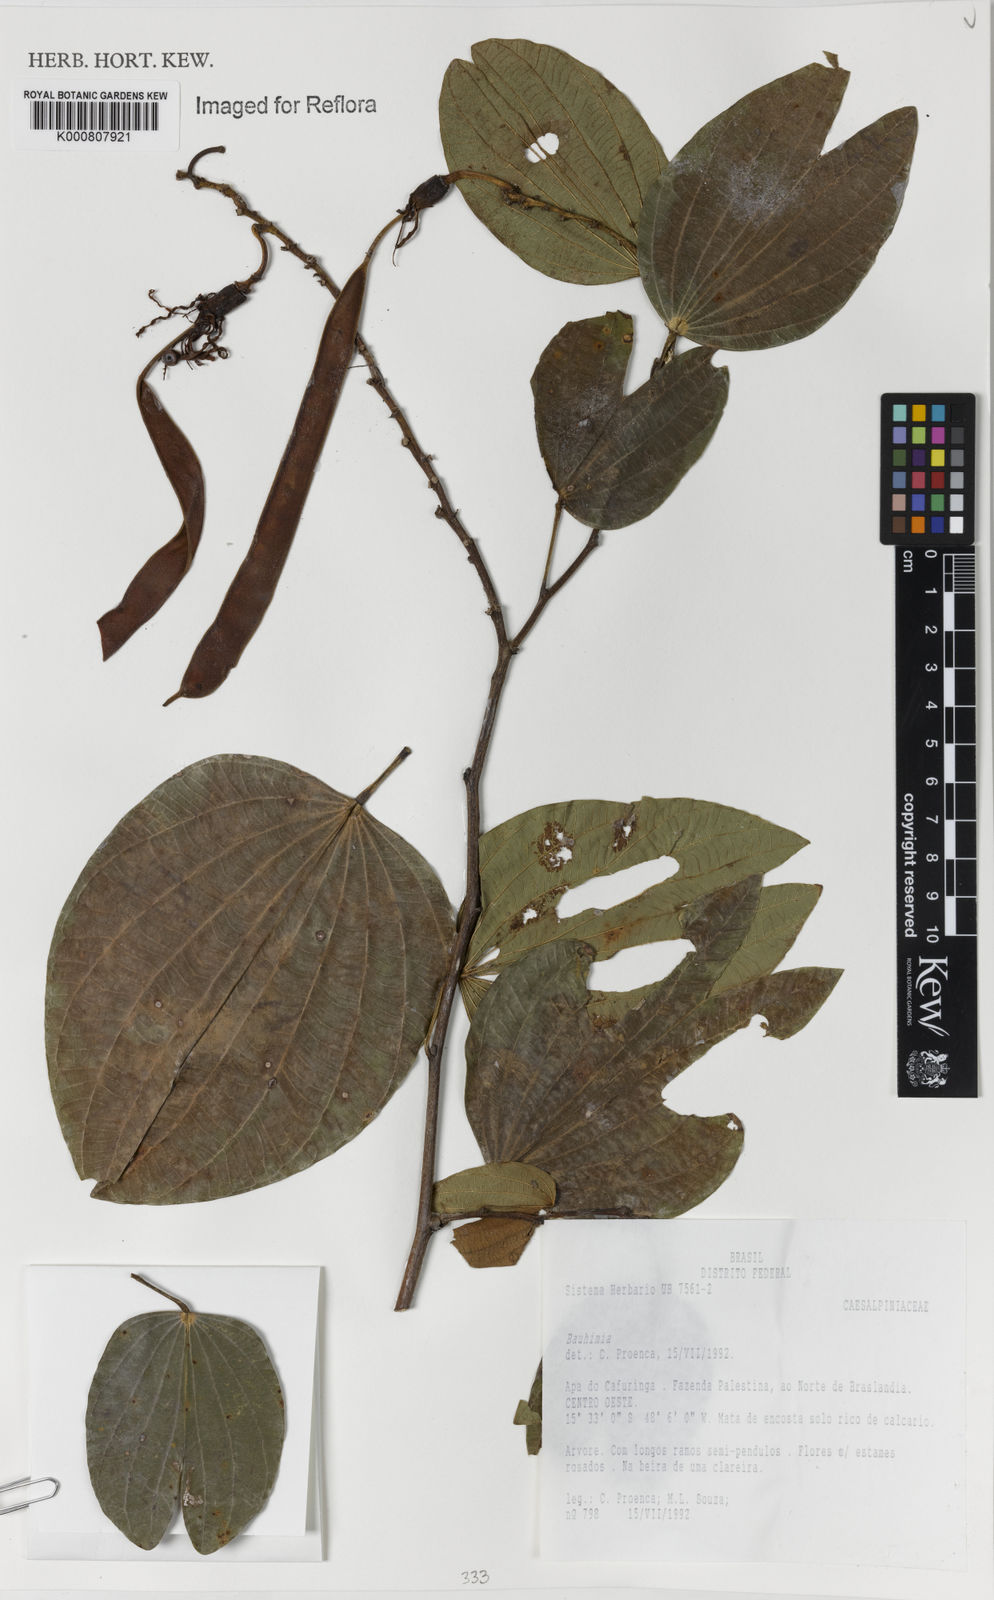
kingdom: Plantae
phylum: Tracheophyta
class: Magnoliopsida
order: Fabales
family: Fabaceae
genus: Bauhinia
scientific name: Bauhinia
